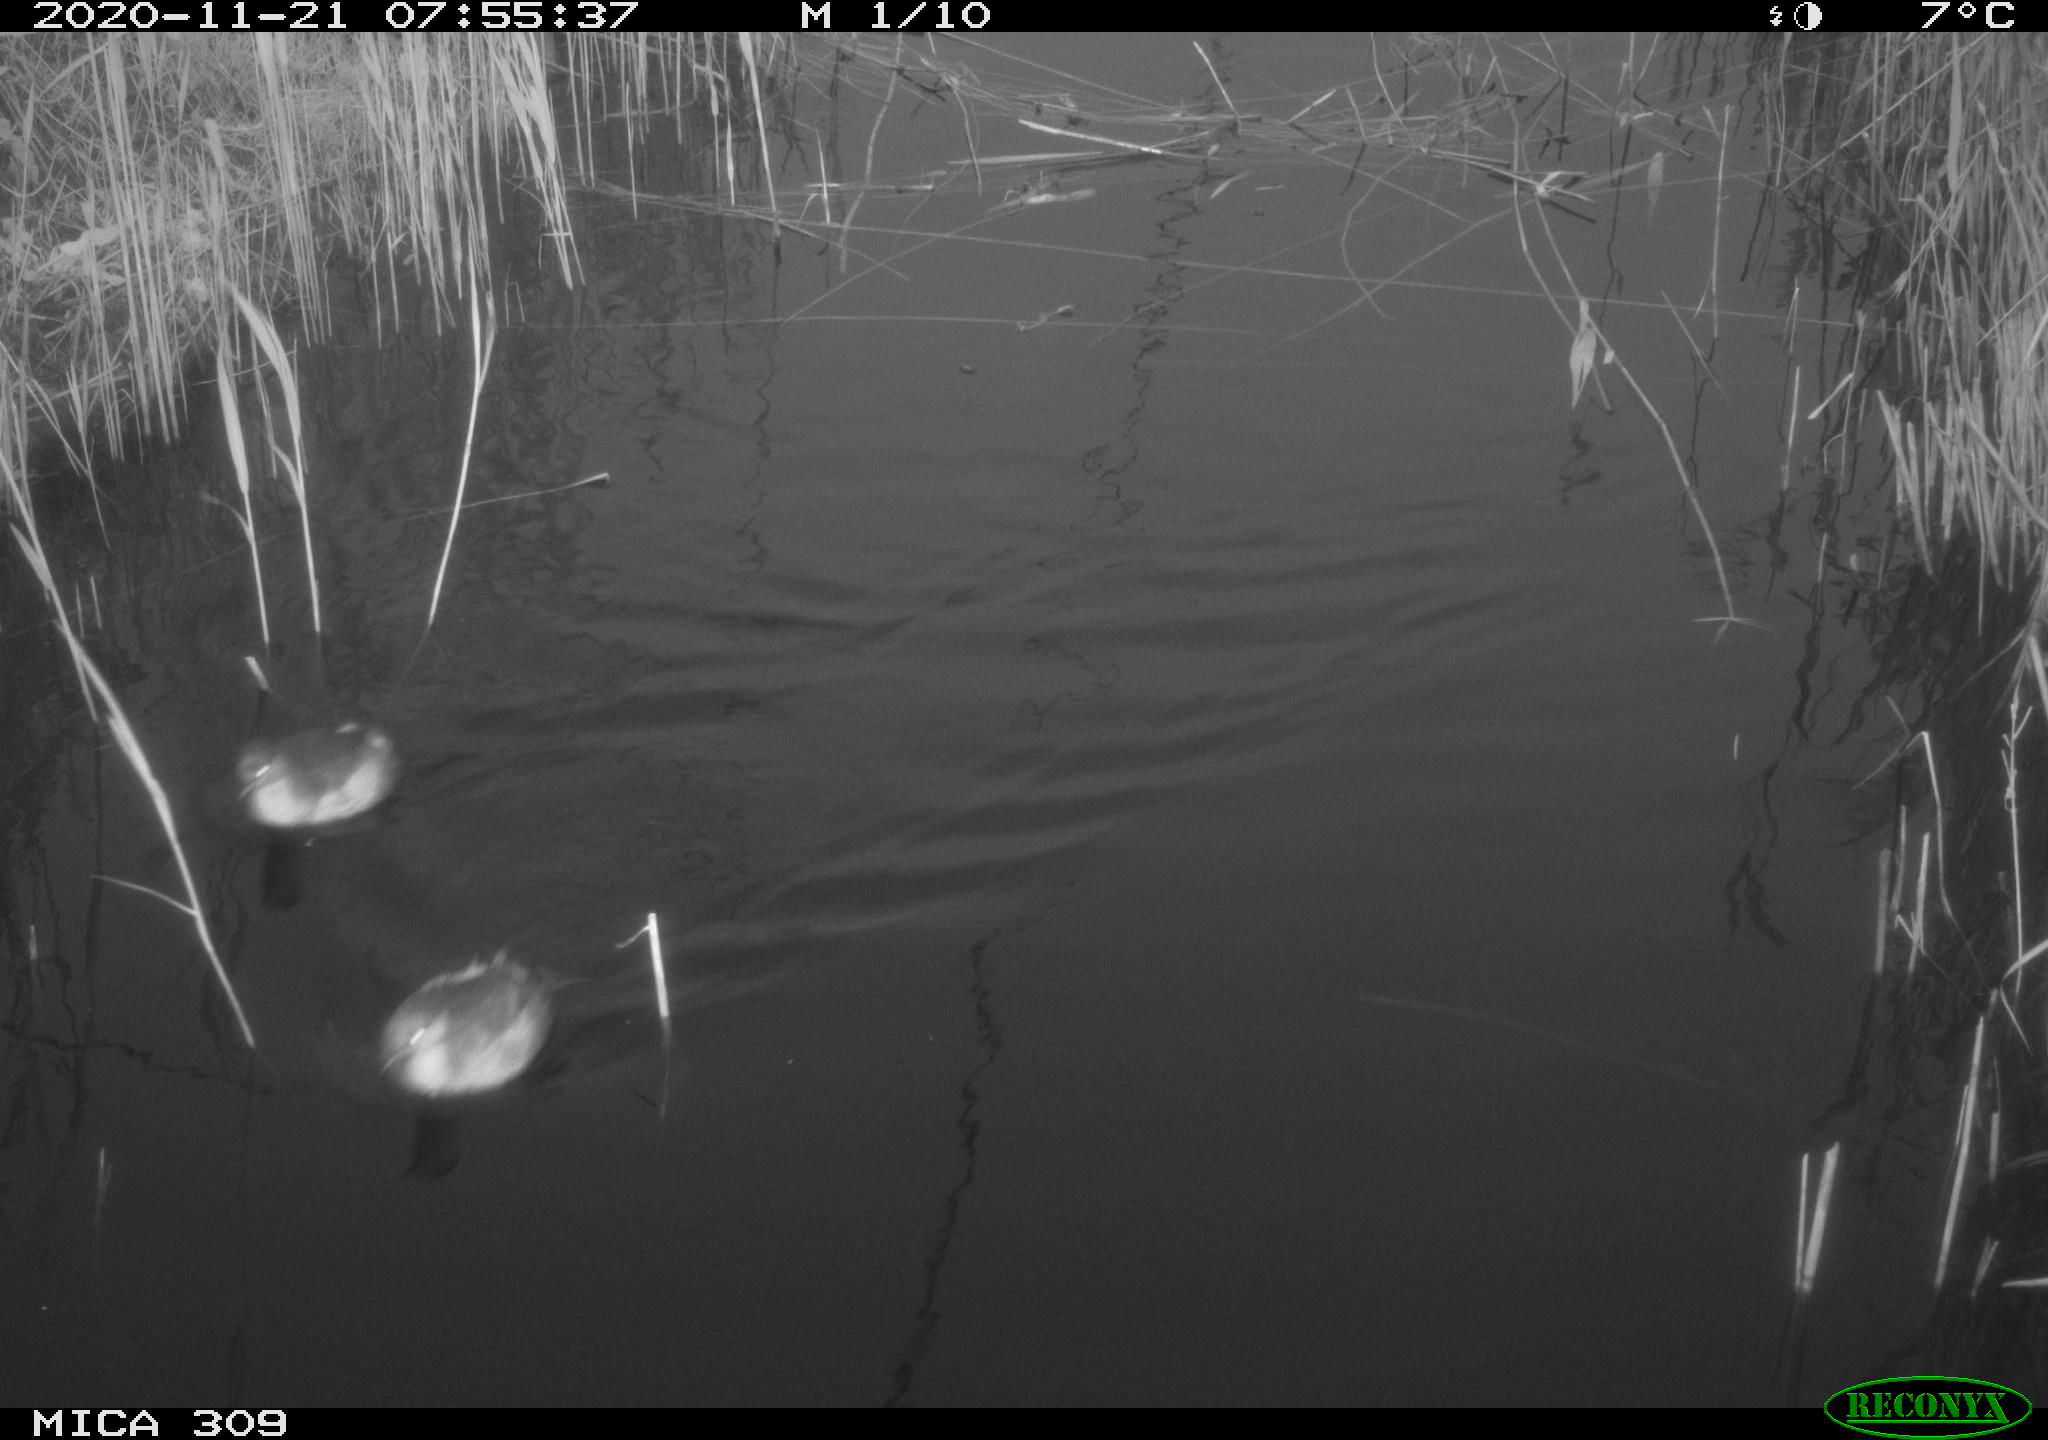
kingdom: Animalia
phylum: Chordata
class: Aves
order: Podicipediformes
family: Podicipedidae
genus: Tachybaptus
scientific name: Tachybaptus ruficollis
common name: Little grebe
